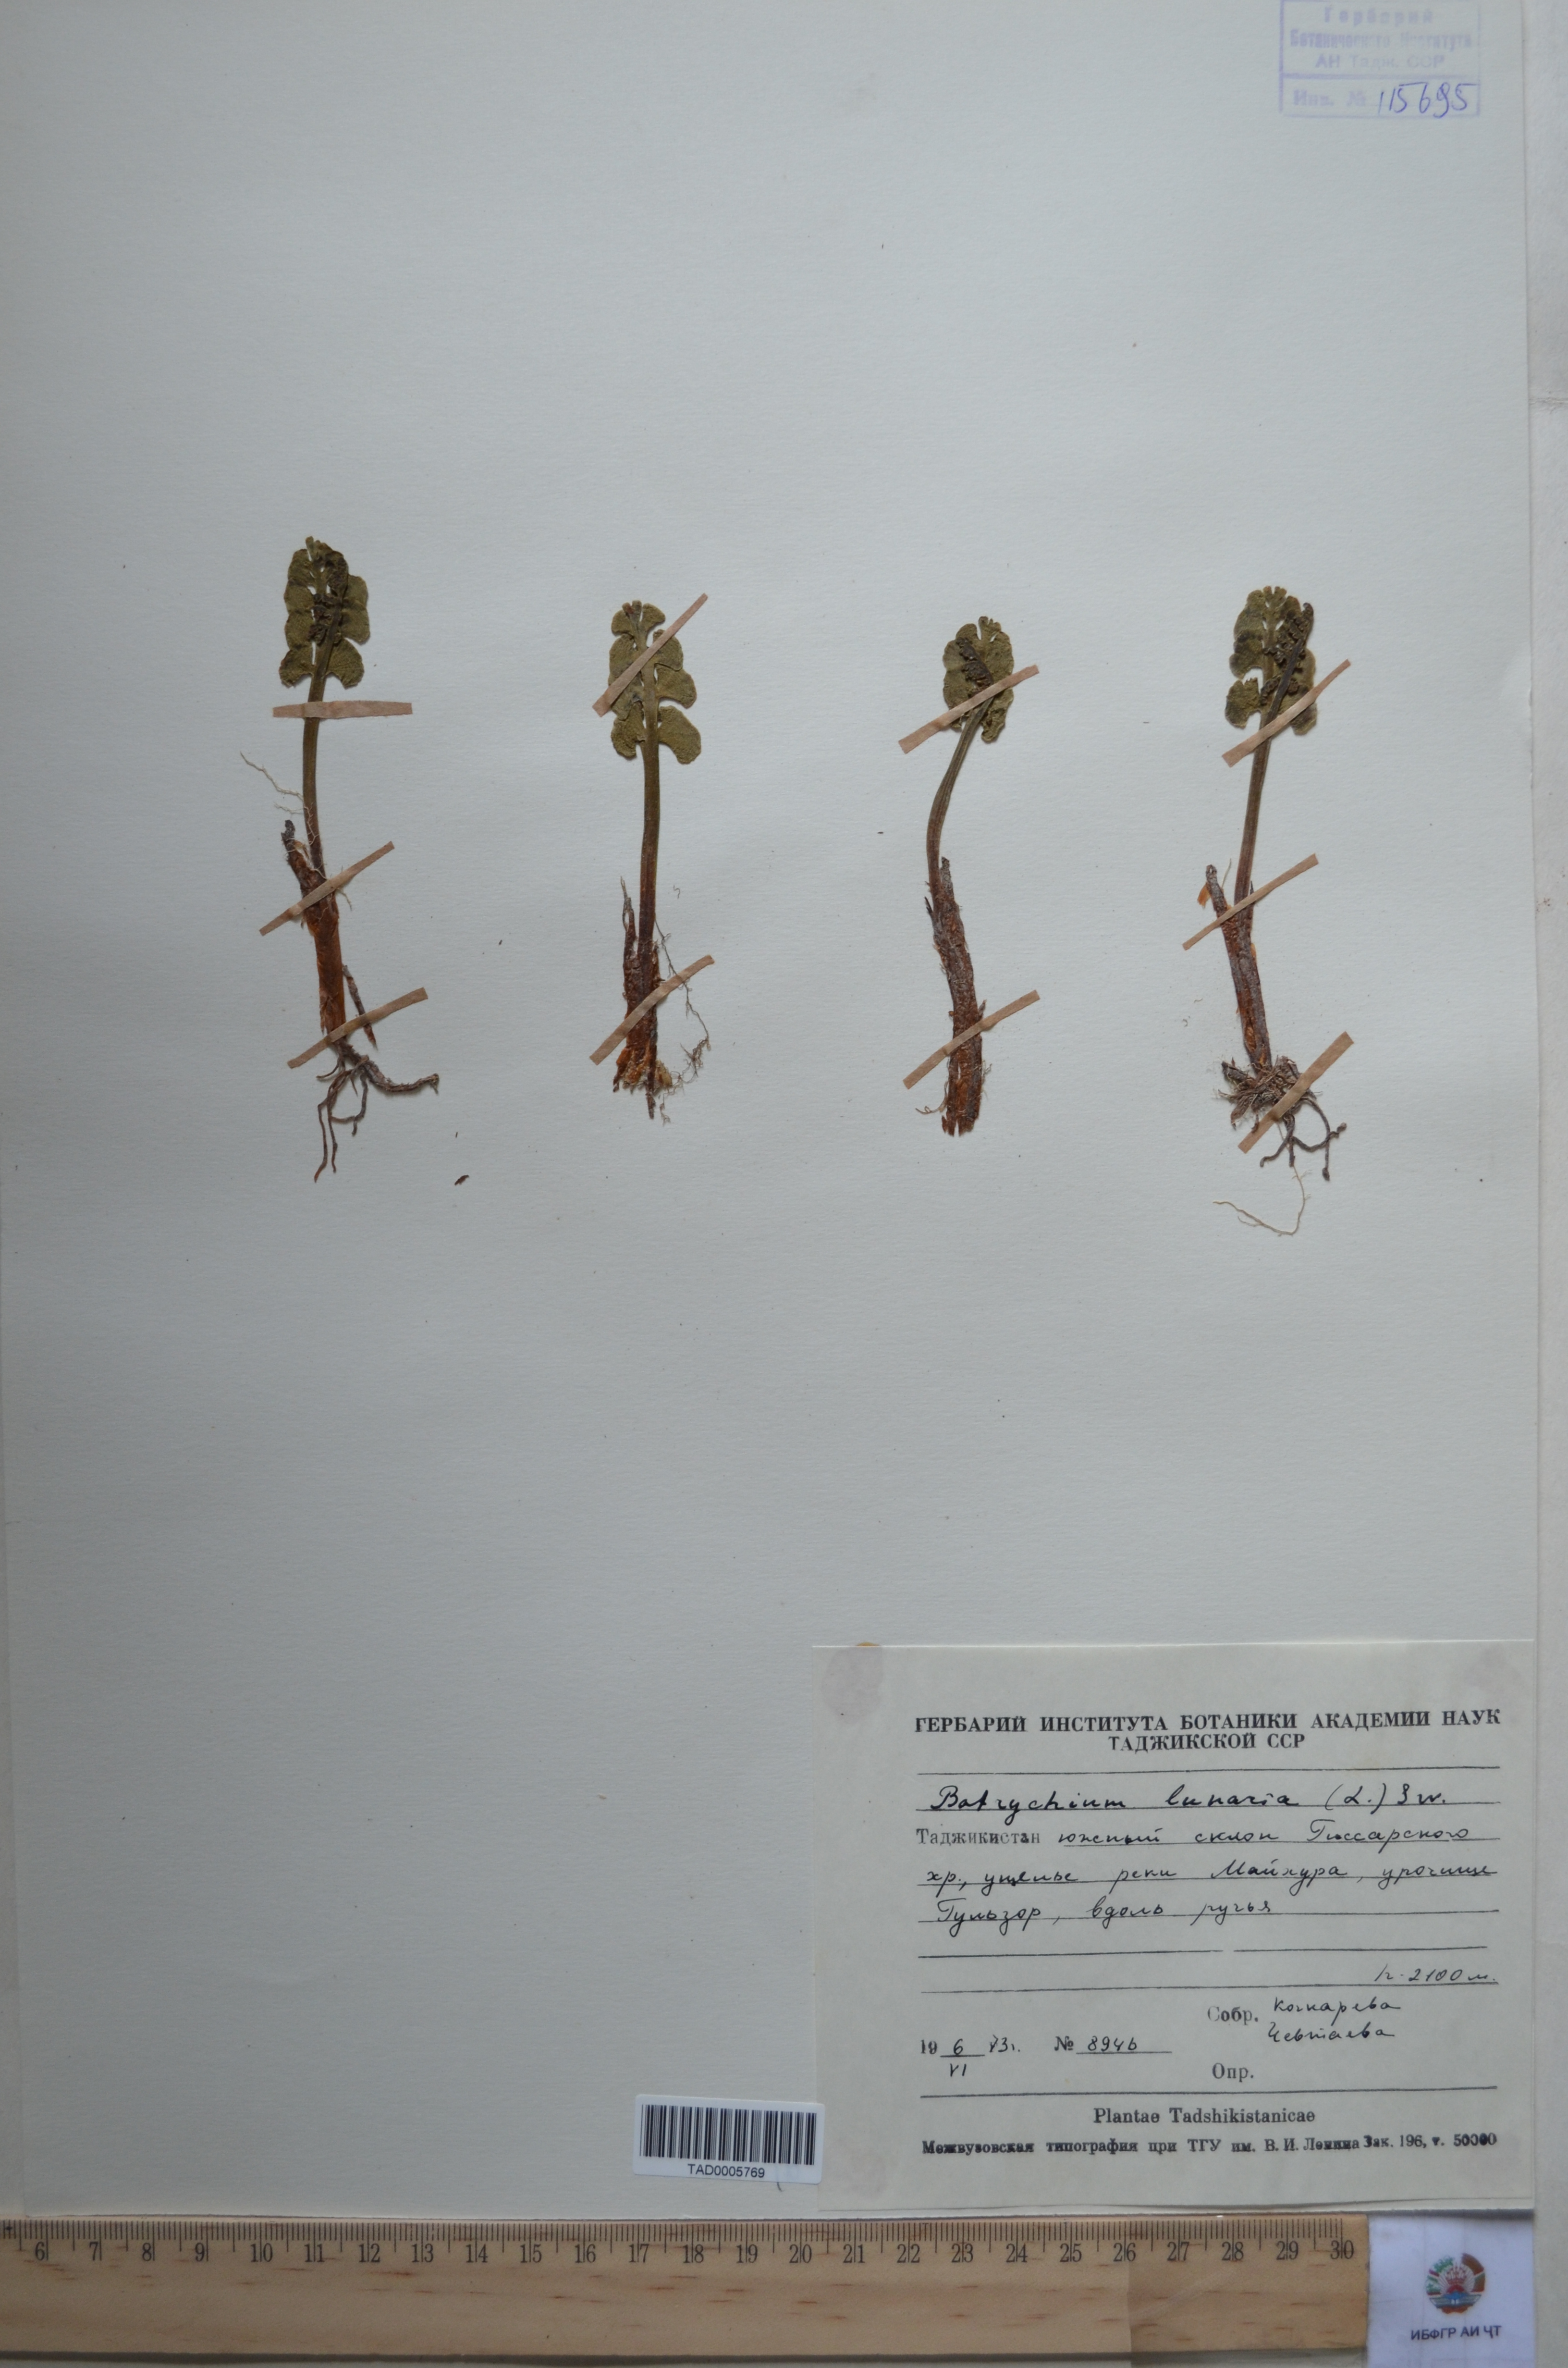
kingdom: Plantae
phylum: Tracheophyta
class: Polypodiopsida
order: Ophioglossales
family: Ophioglossaceae
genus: Botrychium
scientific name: Botrychium lunaria
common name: Moonwort
